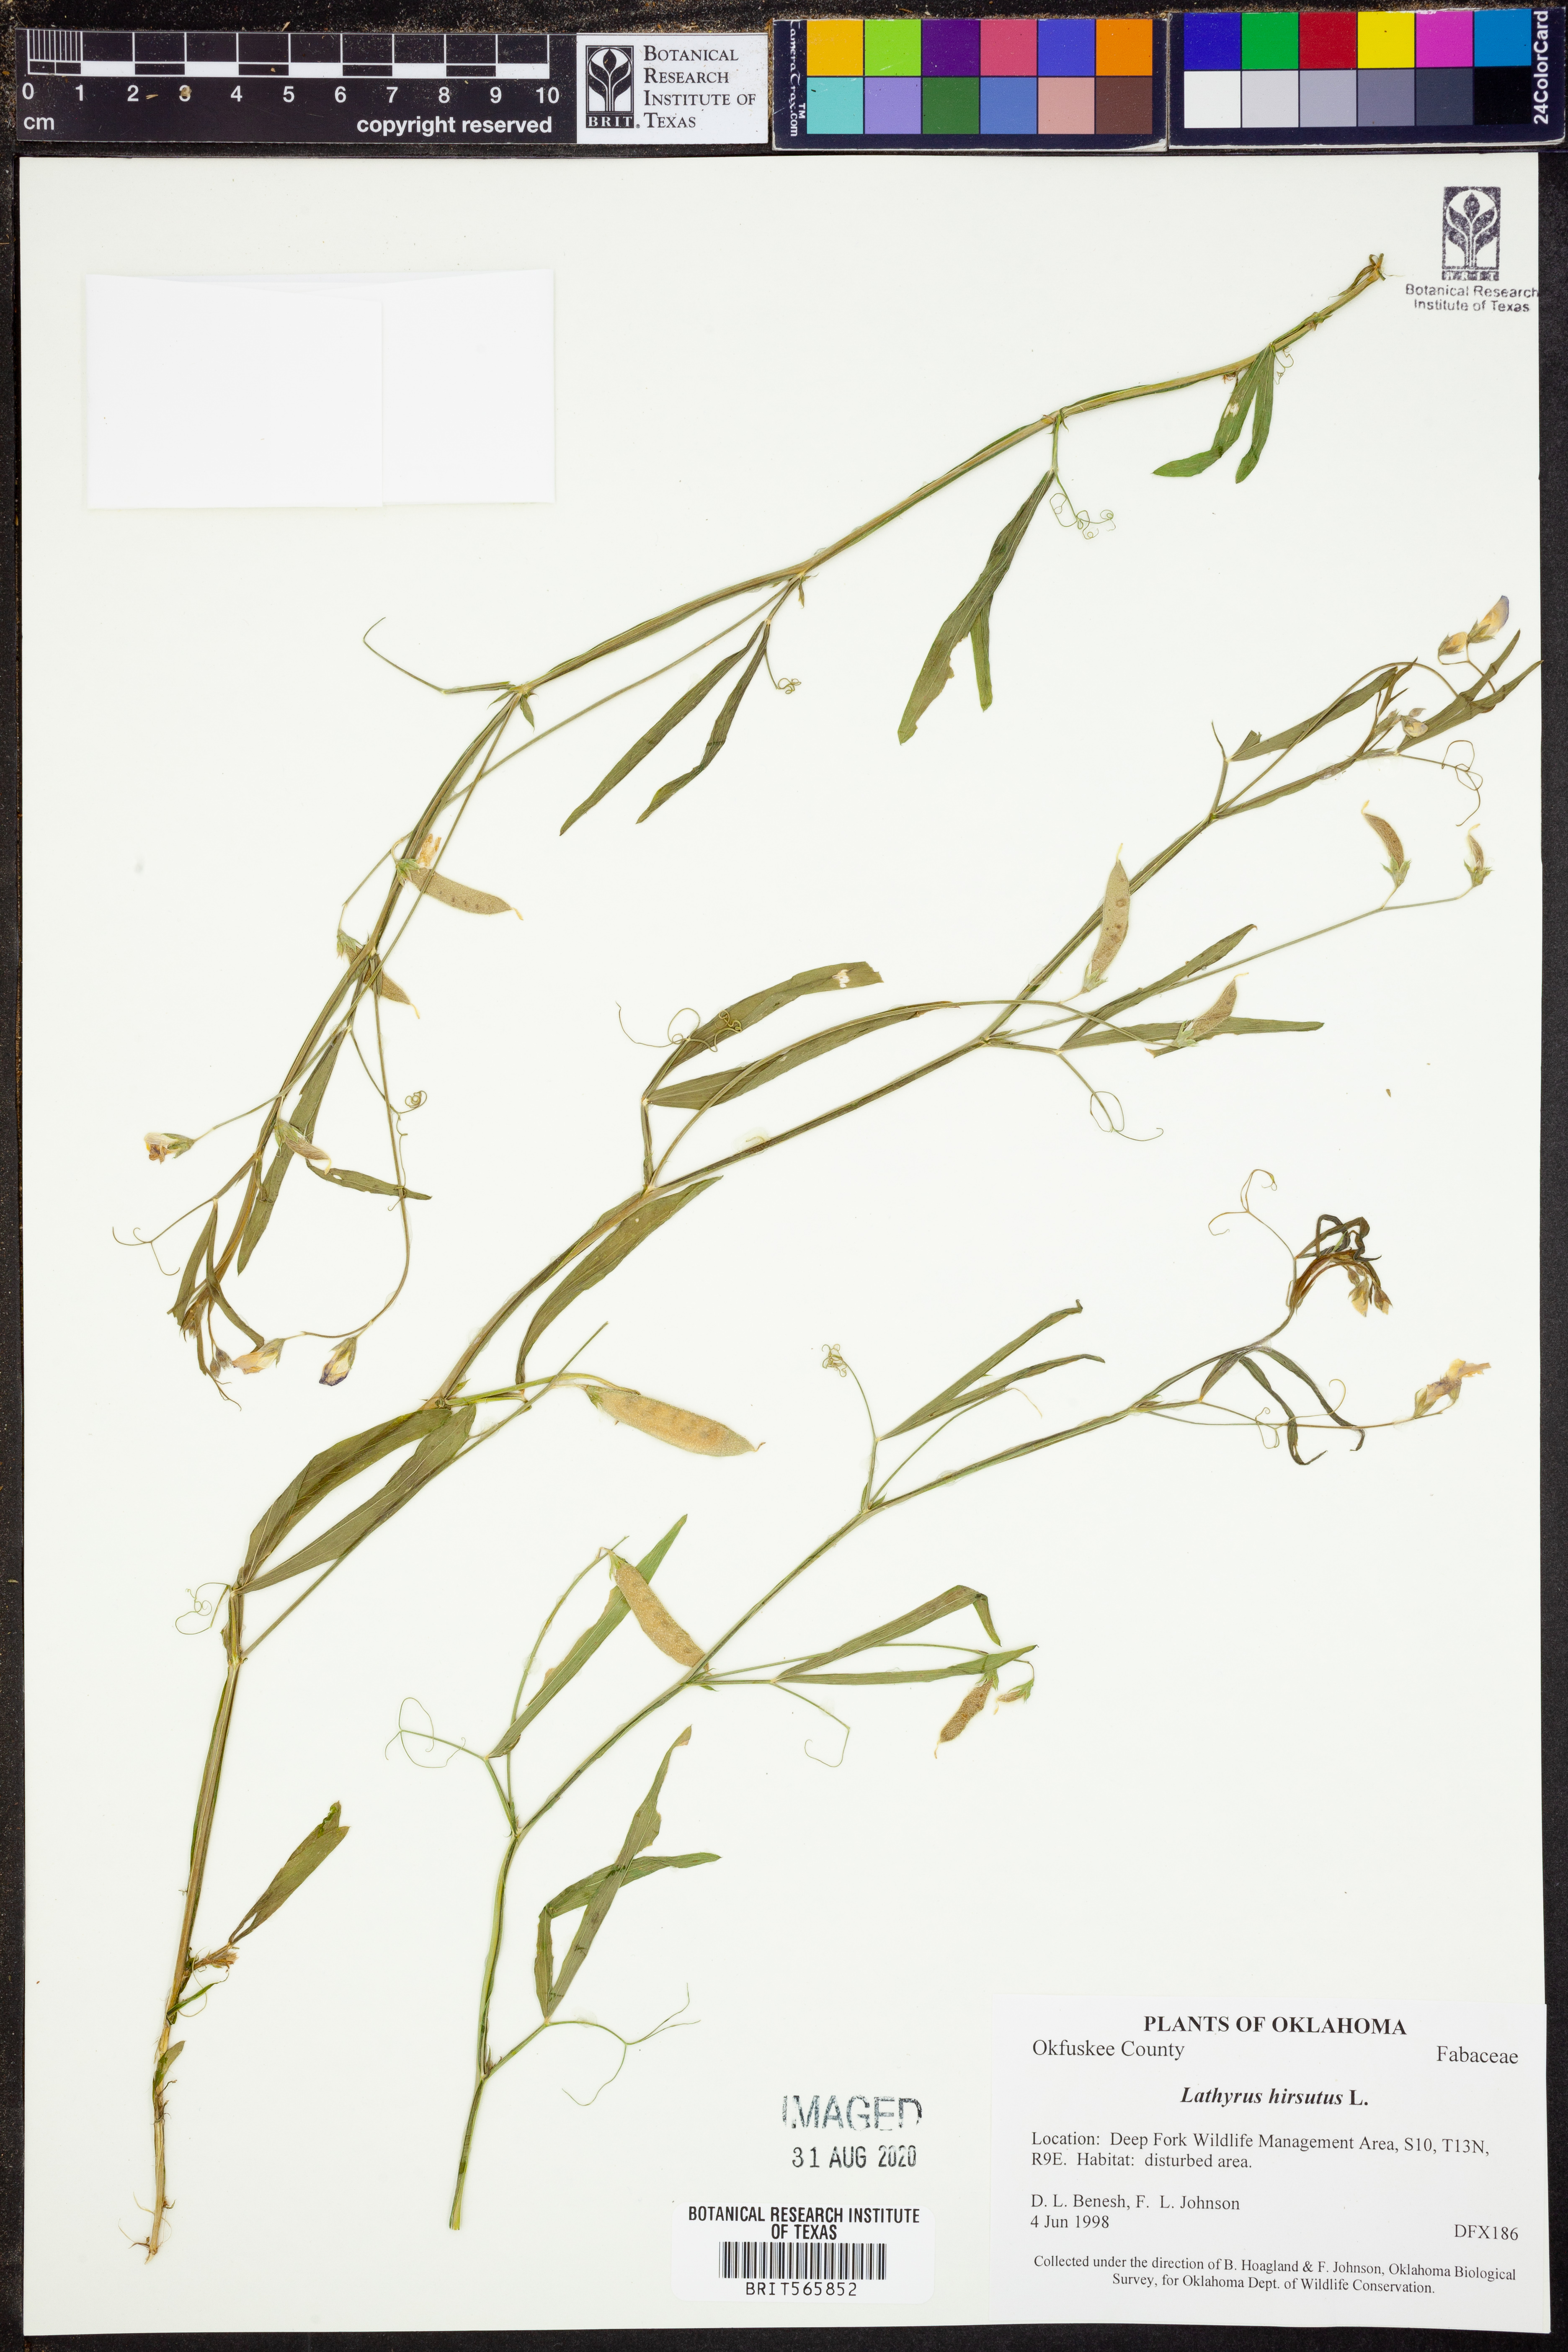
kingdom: Plantae
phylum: Tracheophyta
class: Magnoliopsida
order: Fabales
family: Fabaceae
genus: Lathyrus
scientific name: Lathyrus hirsutus
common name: Hairy vetchling
